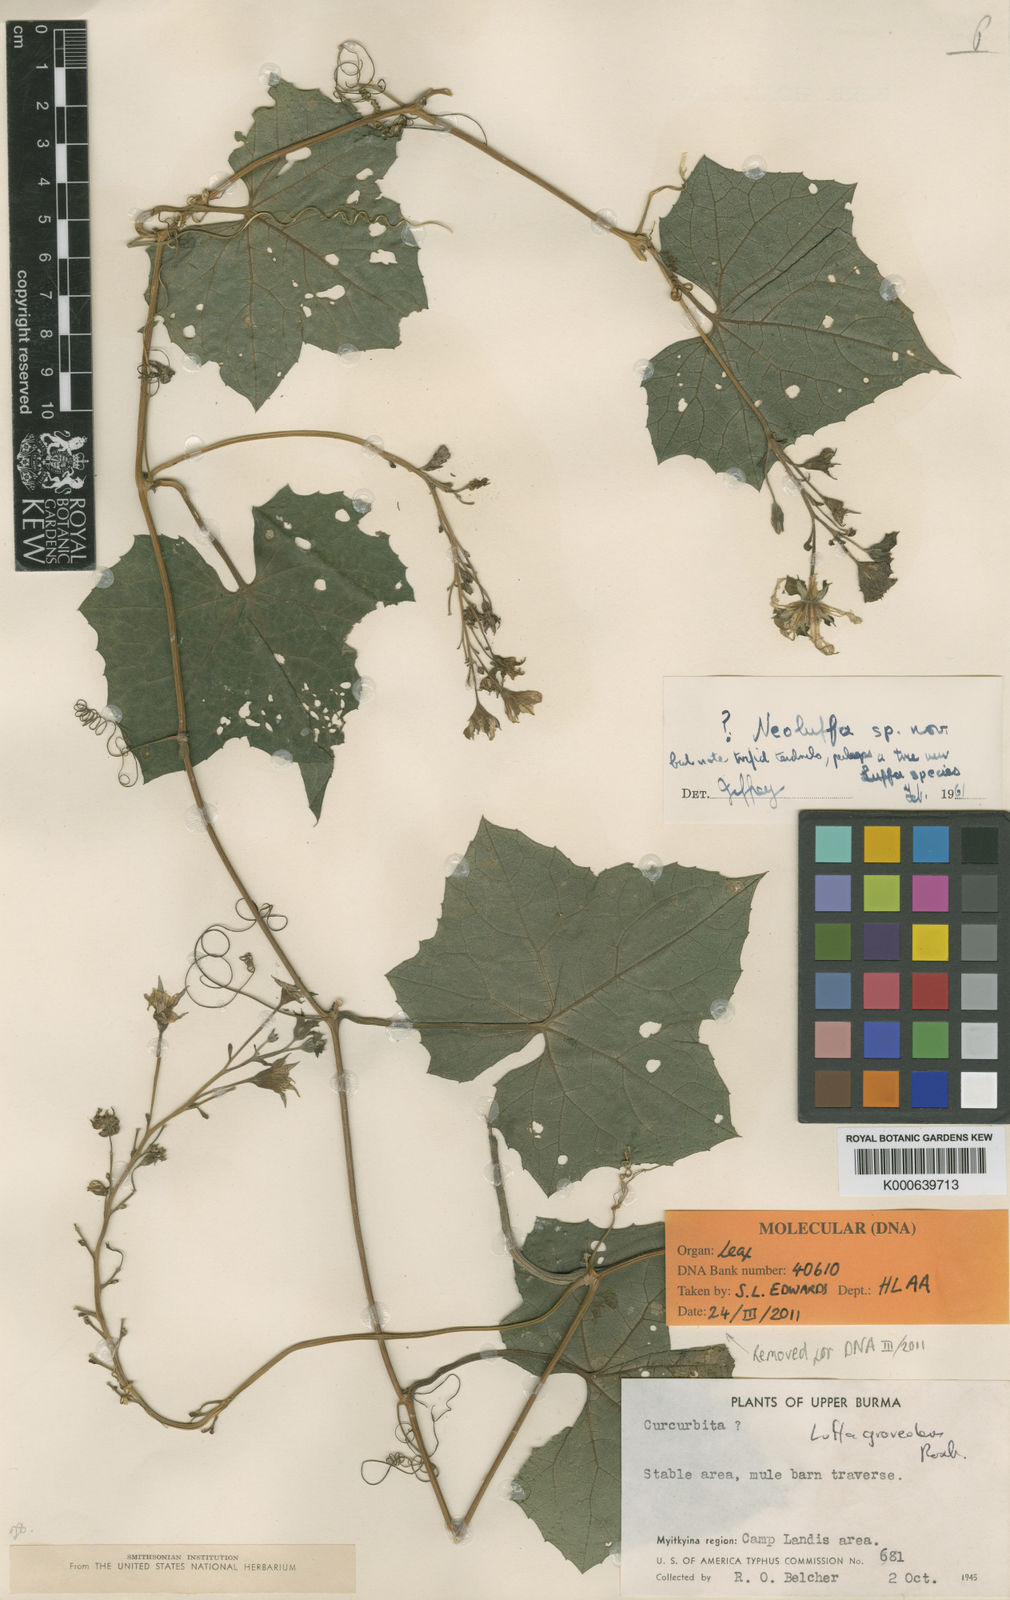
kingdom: Plantae
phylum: Tracheophyta
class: Magnoliopsida
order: Cucurbitales
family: Cucurbitaceae
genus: Luffa
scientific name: Luffa graveolens
